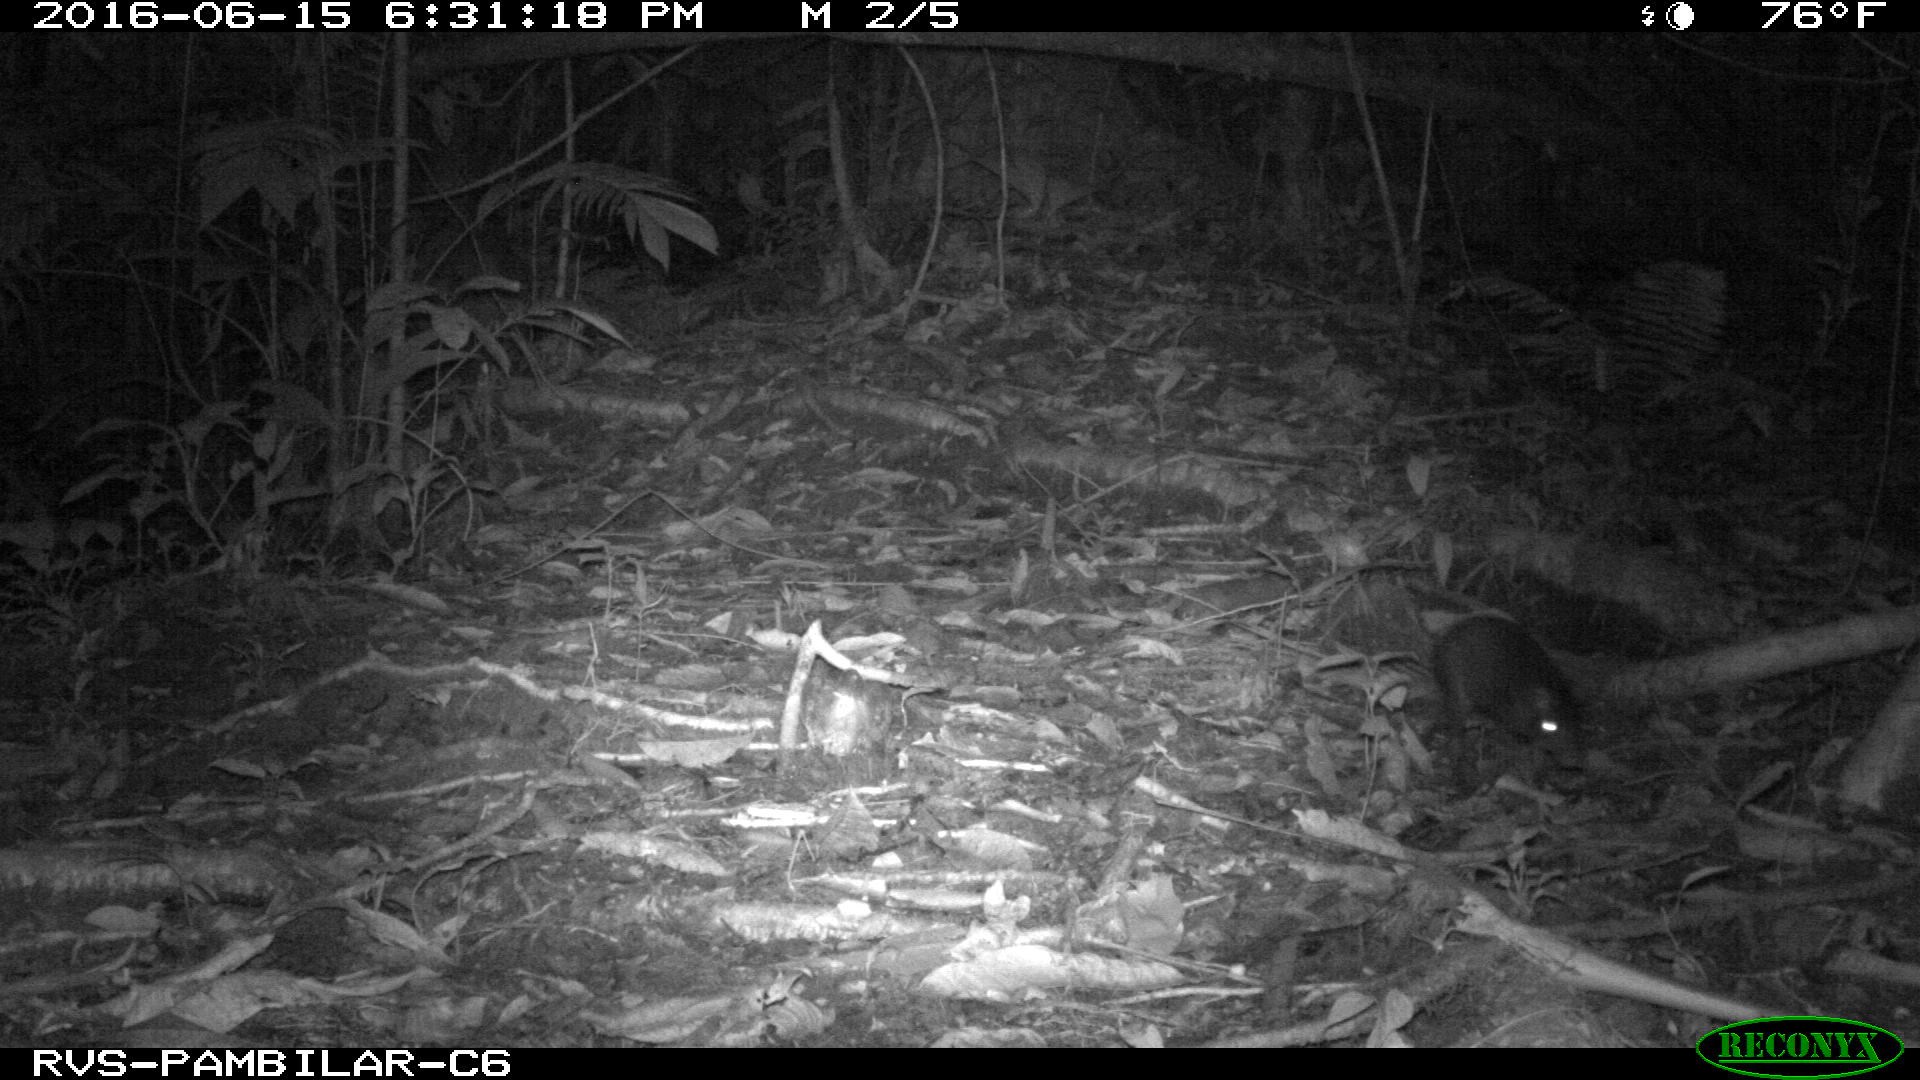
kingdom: Animalia
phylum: Chordata
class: Mammalia
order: Rodentia
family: Dasyproctidae
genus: Dasyprocta
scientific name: Dasyprocta punctata
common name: Central american agouti
